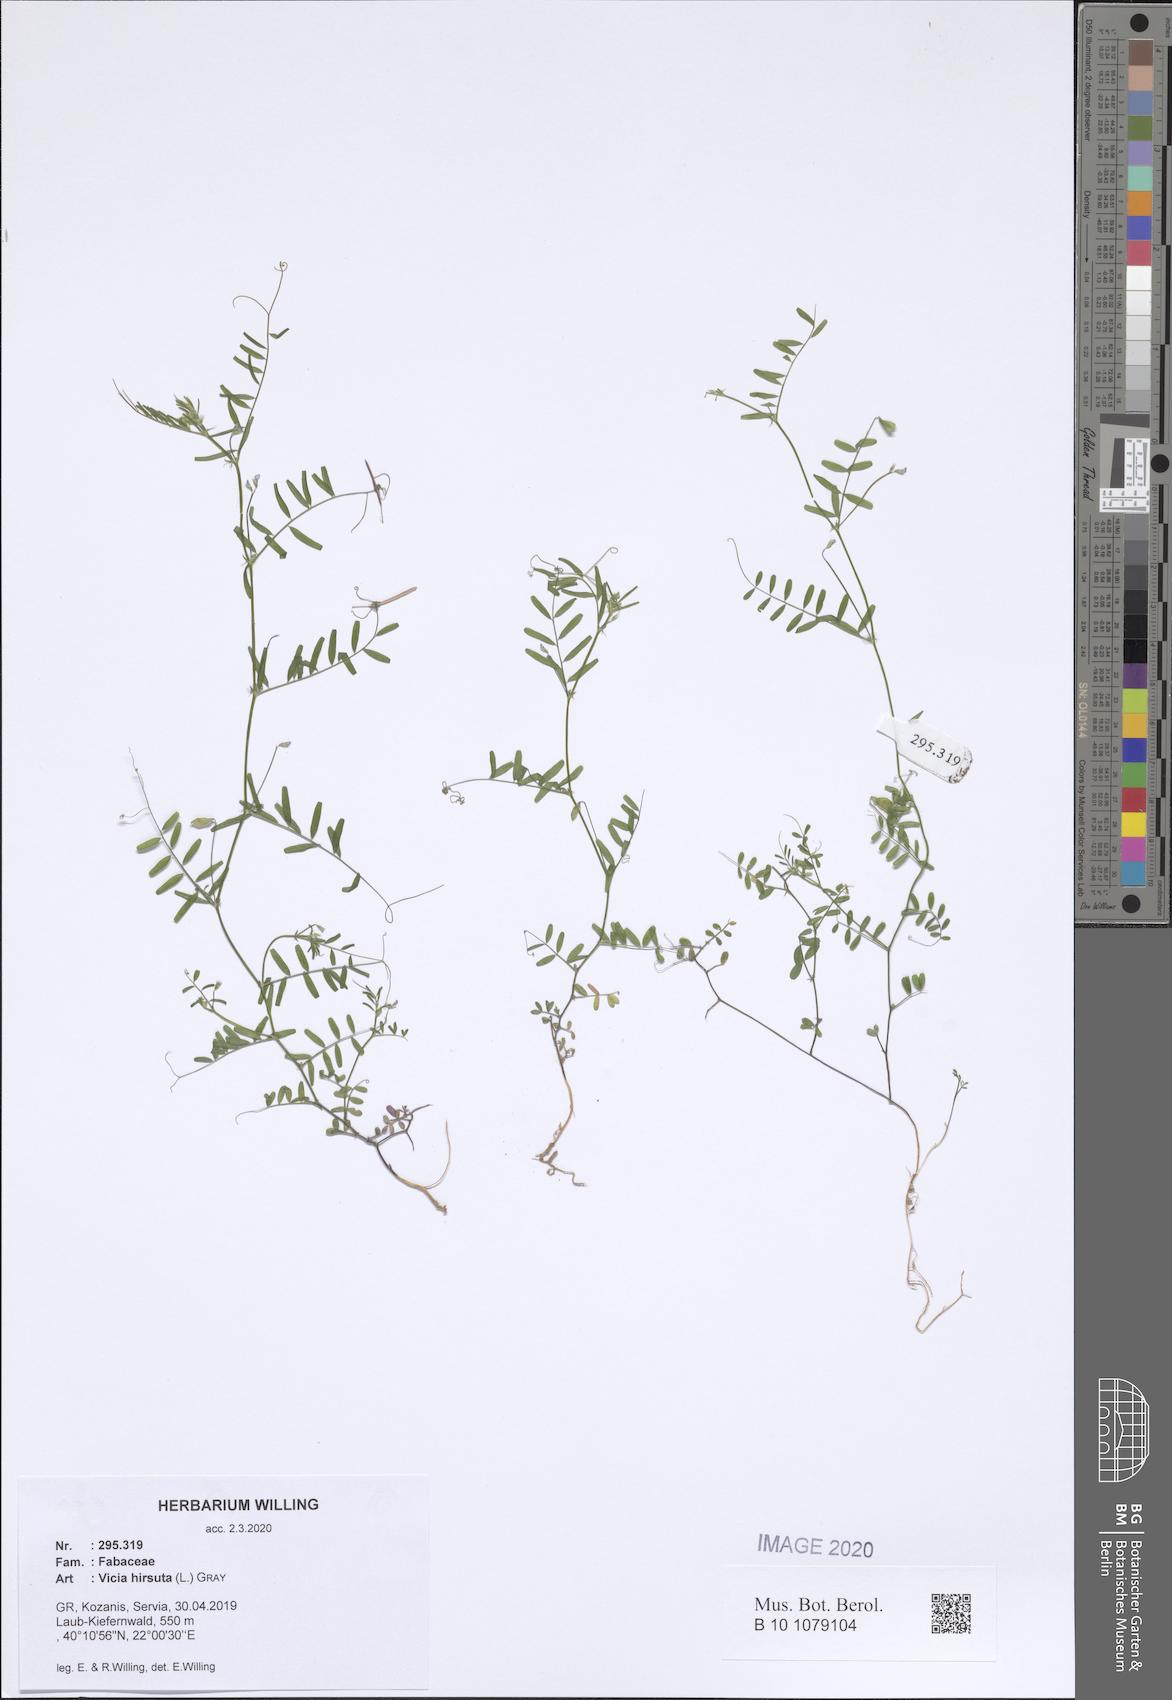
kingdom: Plantae
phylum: Tracheophyta
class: Magnoliopsida
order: Fabales
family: Fabaceae
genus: Vicia
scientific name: Vicia hirsuta
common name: Tiny vetch
